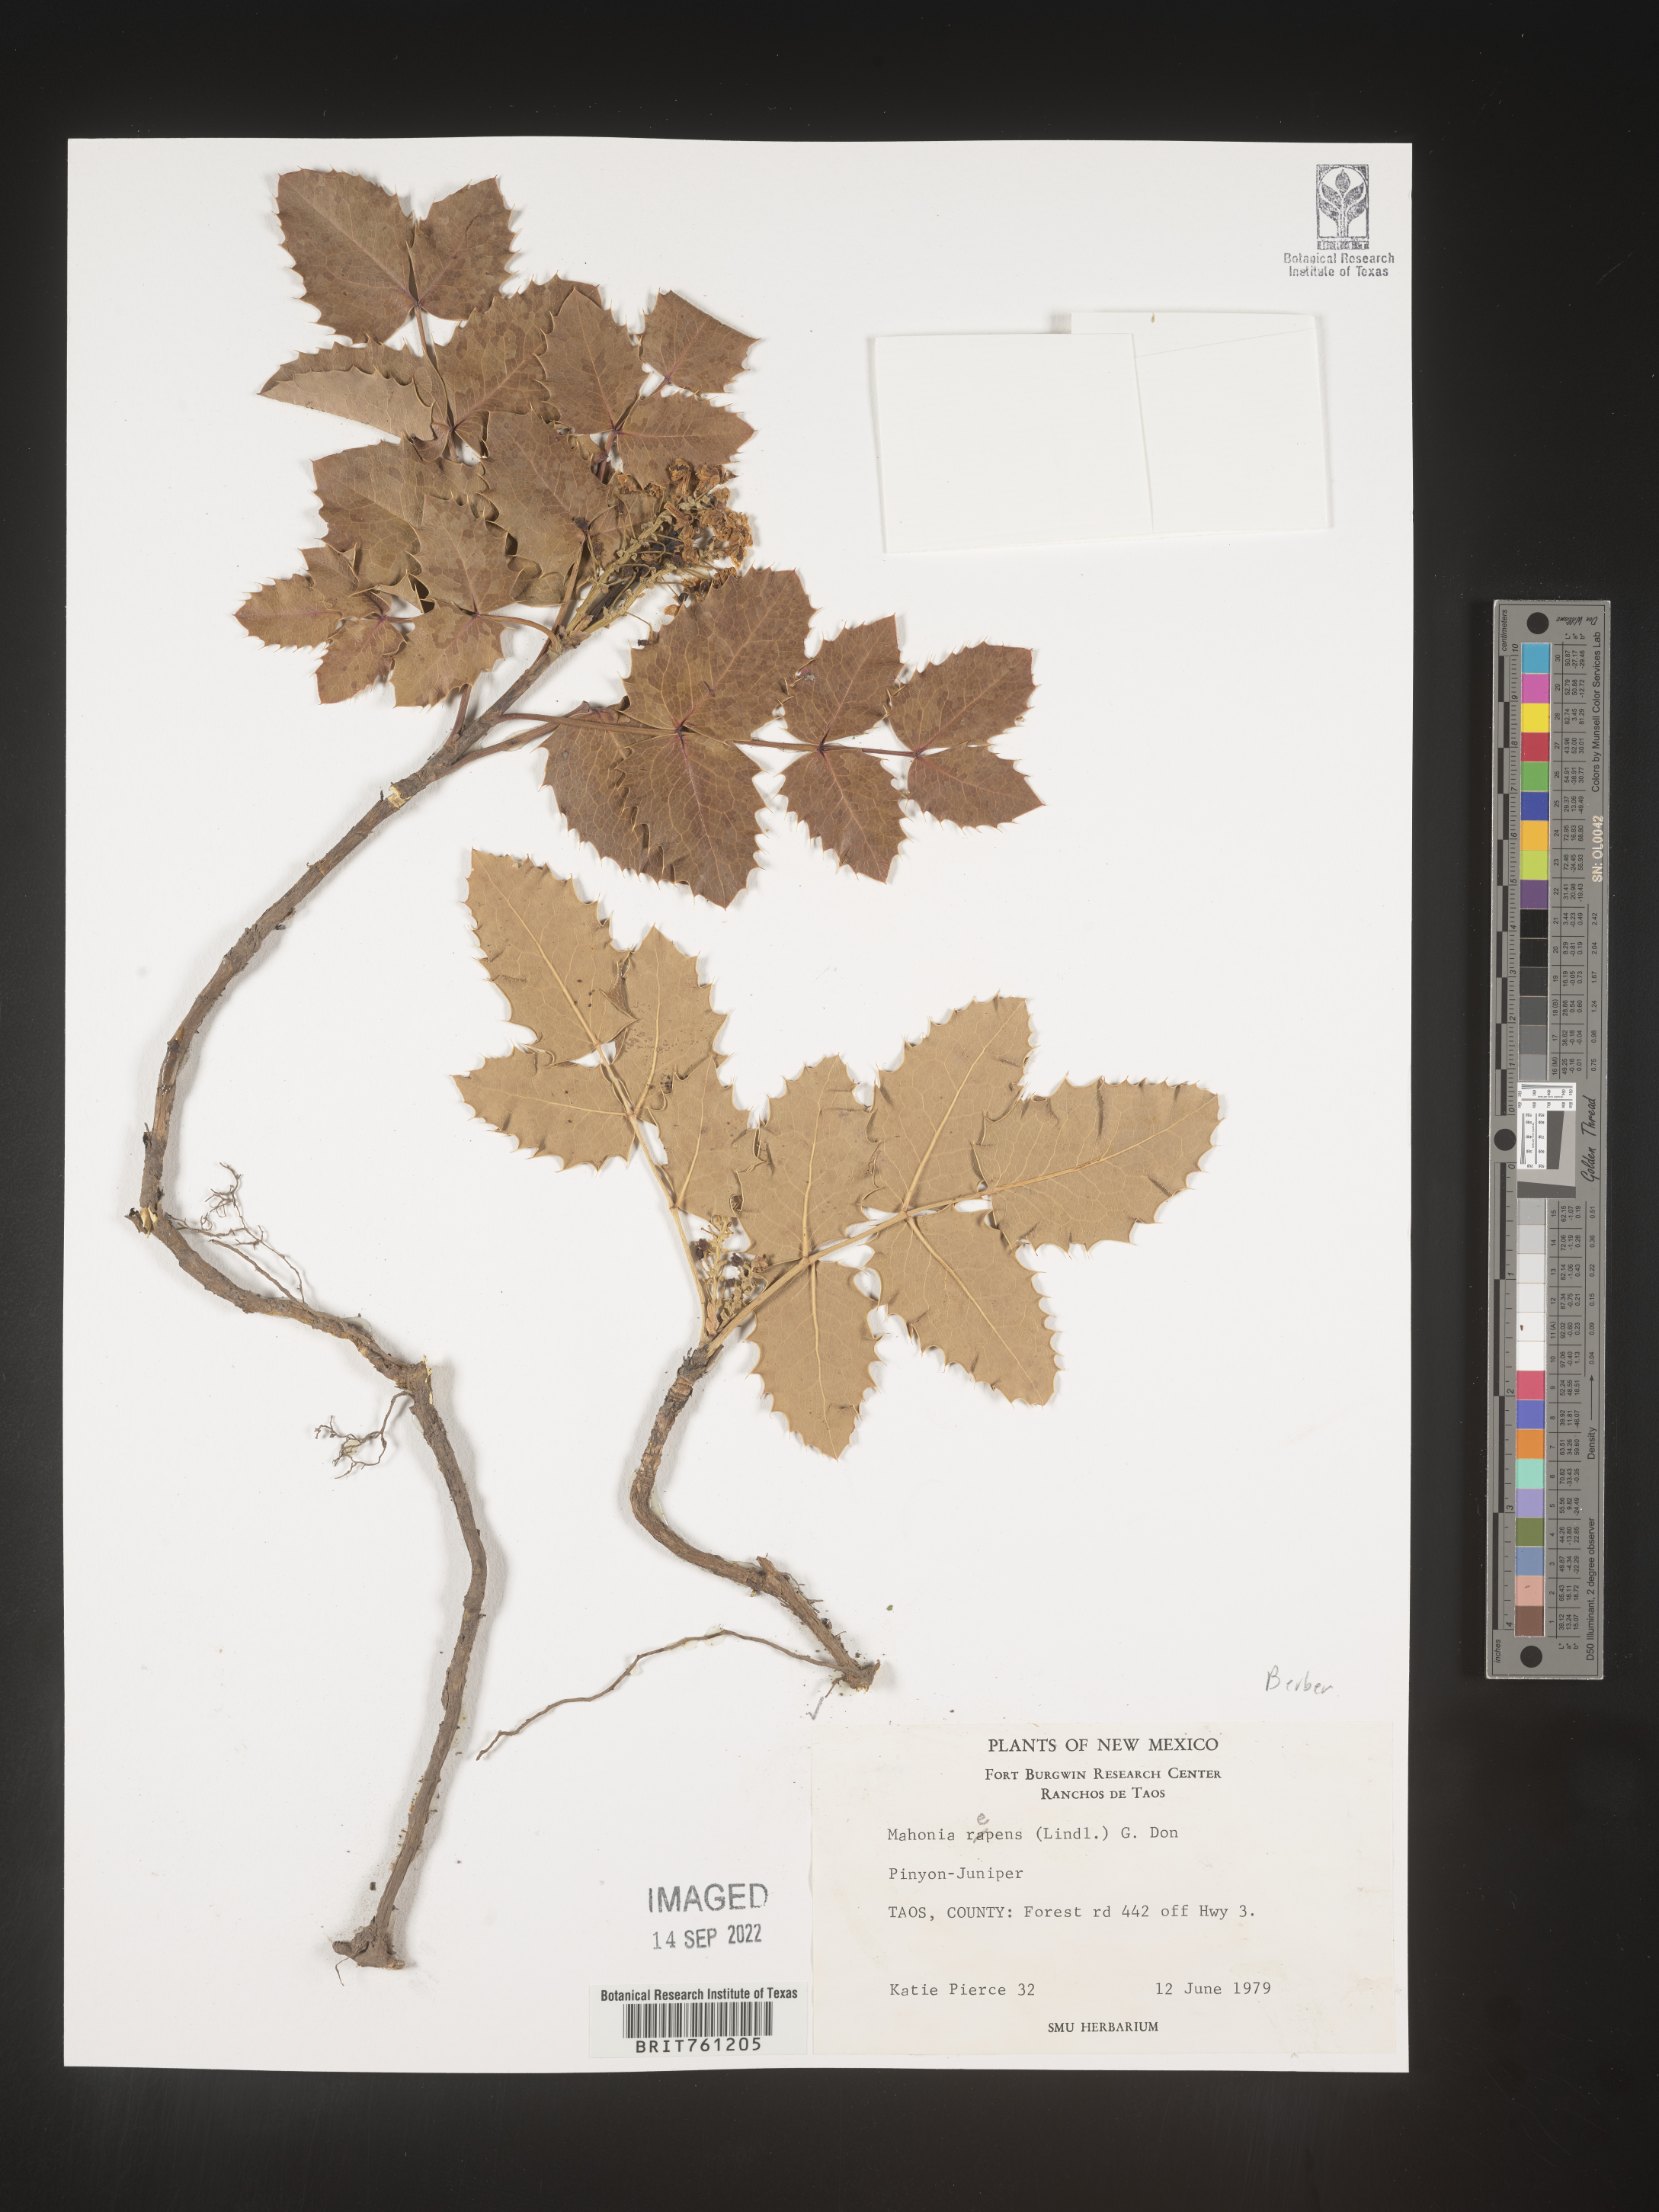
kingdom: Plantae
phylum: Tracheophyta
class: Magnoliopsida
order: Ranunculales
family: Berberidaceae
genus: Mahonia
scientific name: Mahonia repens
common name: Creeping oregon-grape
